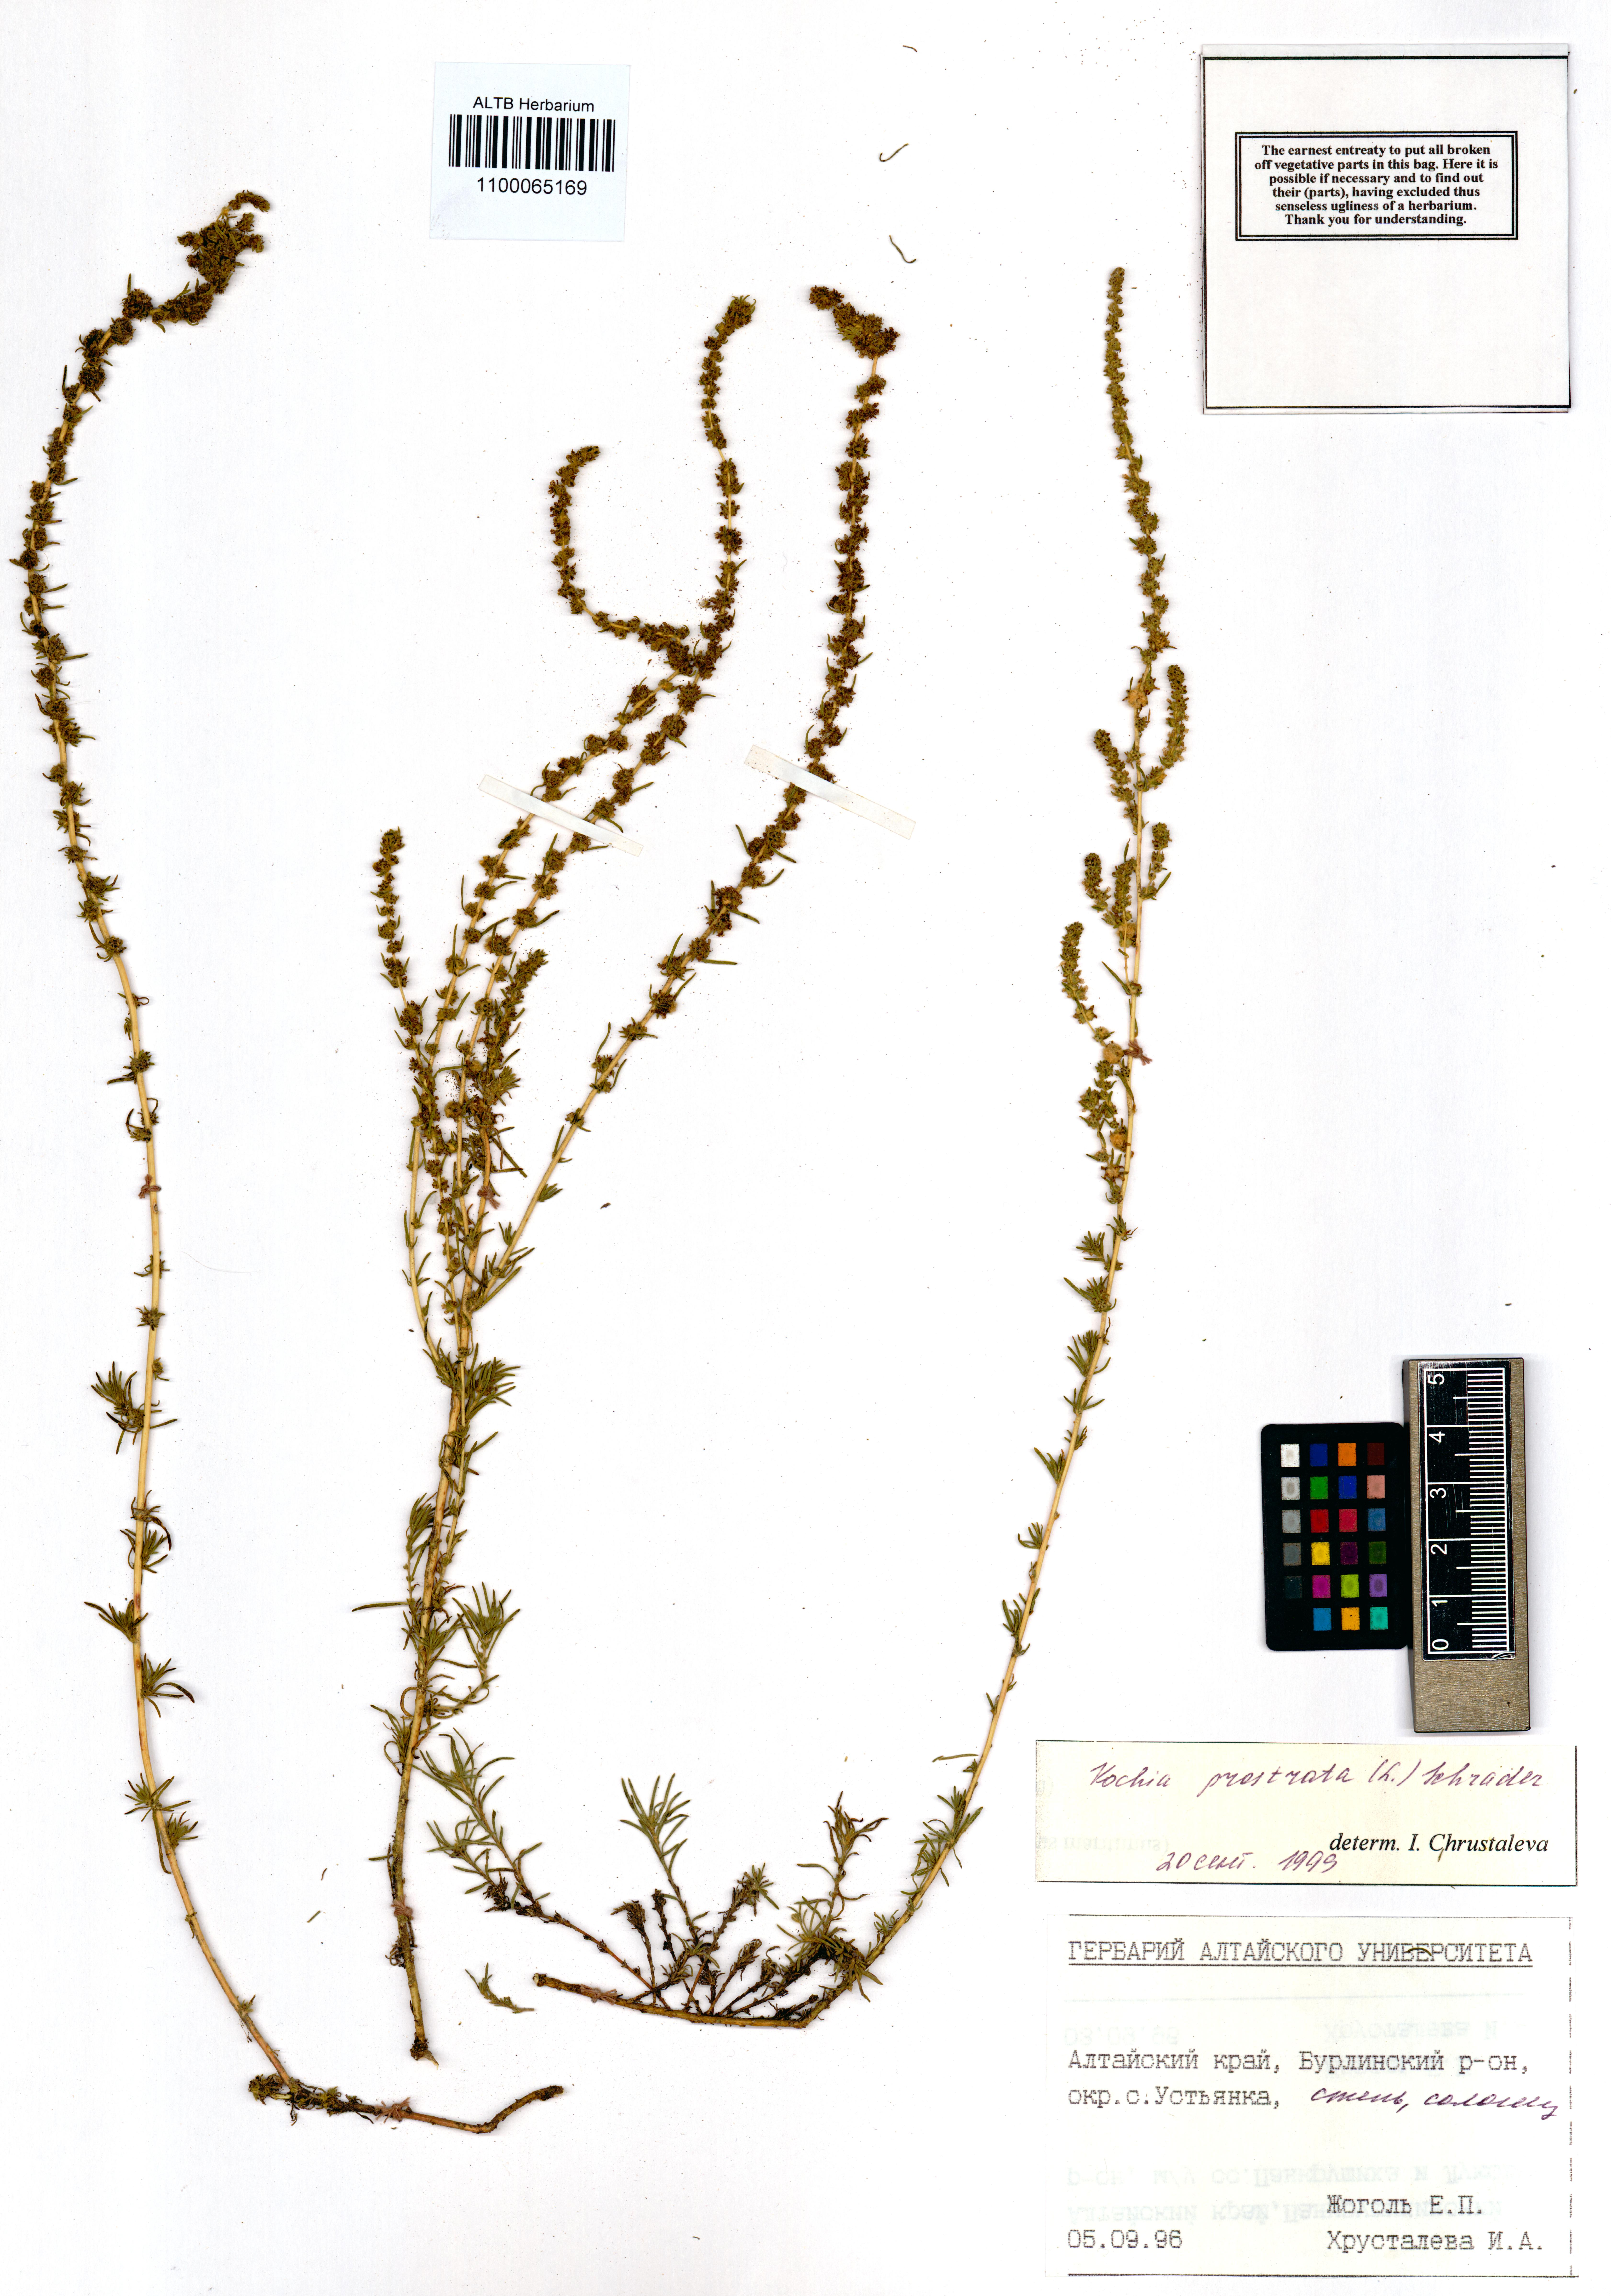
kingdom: Plantae
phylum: Tracheophyta
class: Magnoliopsida
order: Caryophyllales
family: Amaranthaceae
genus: Bassia
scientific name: Bassia prostrata
